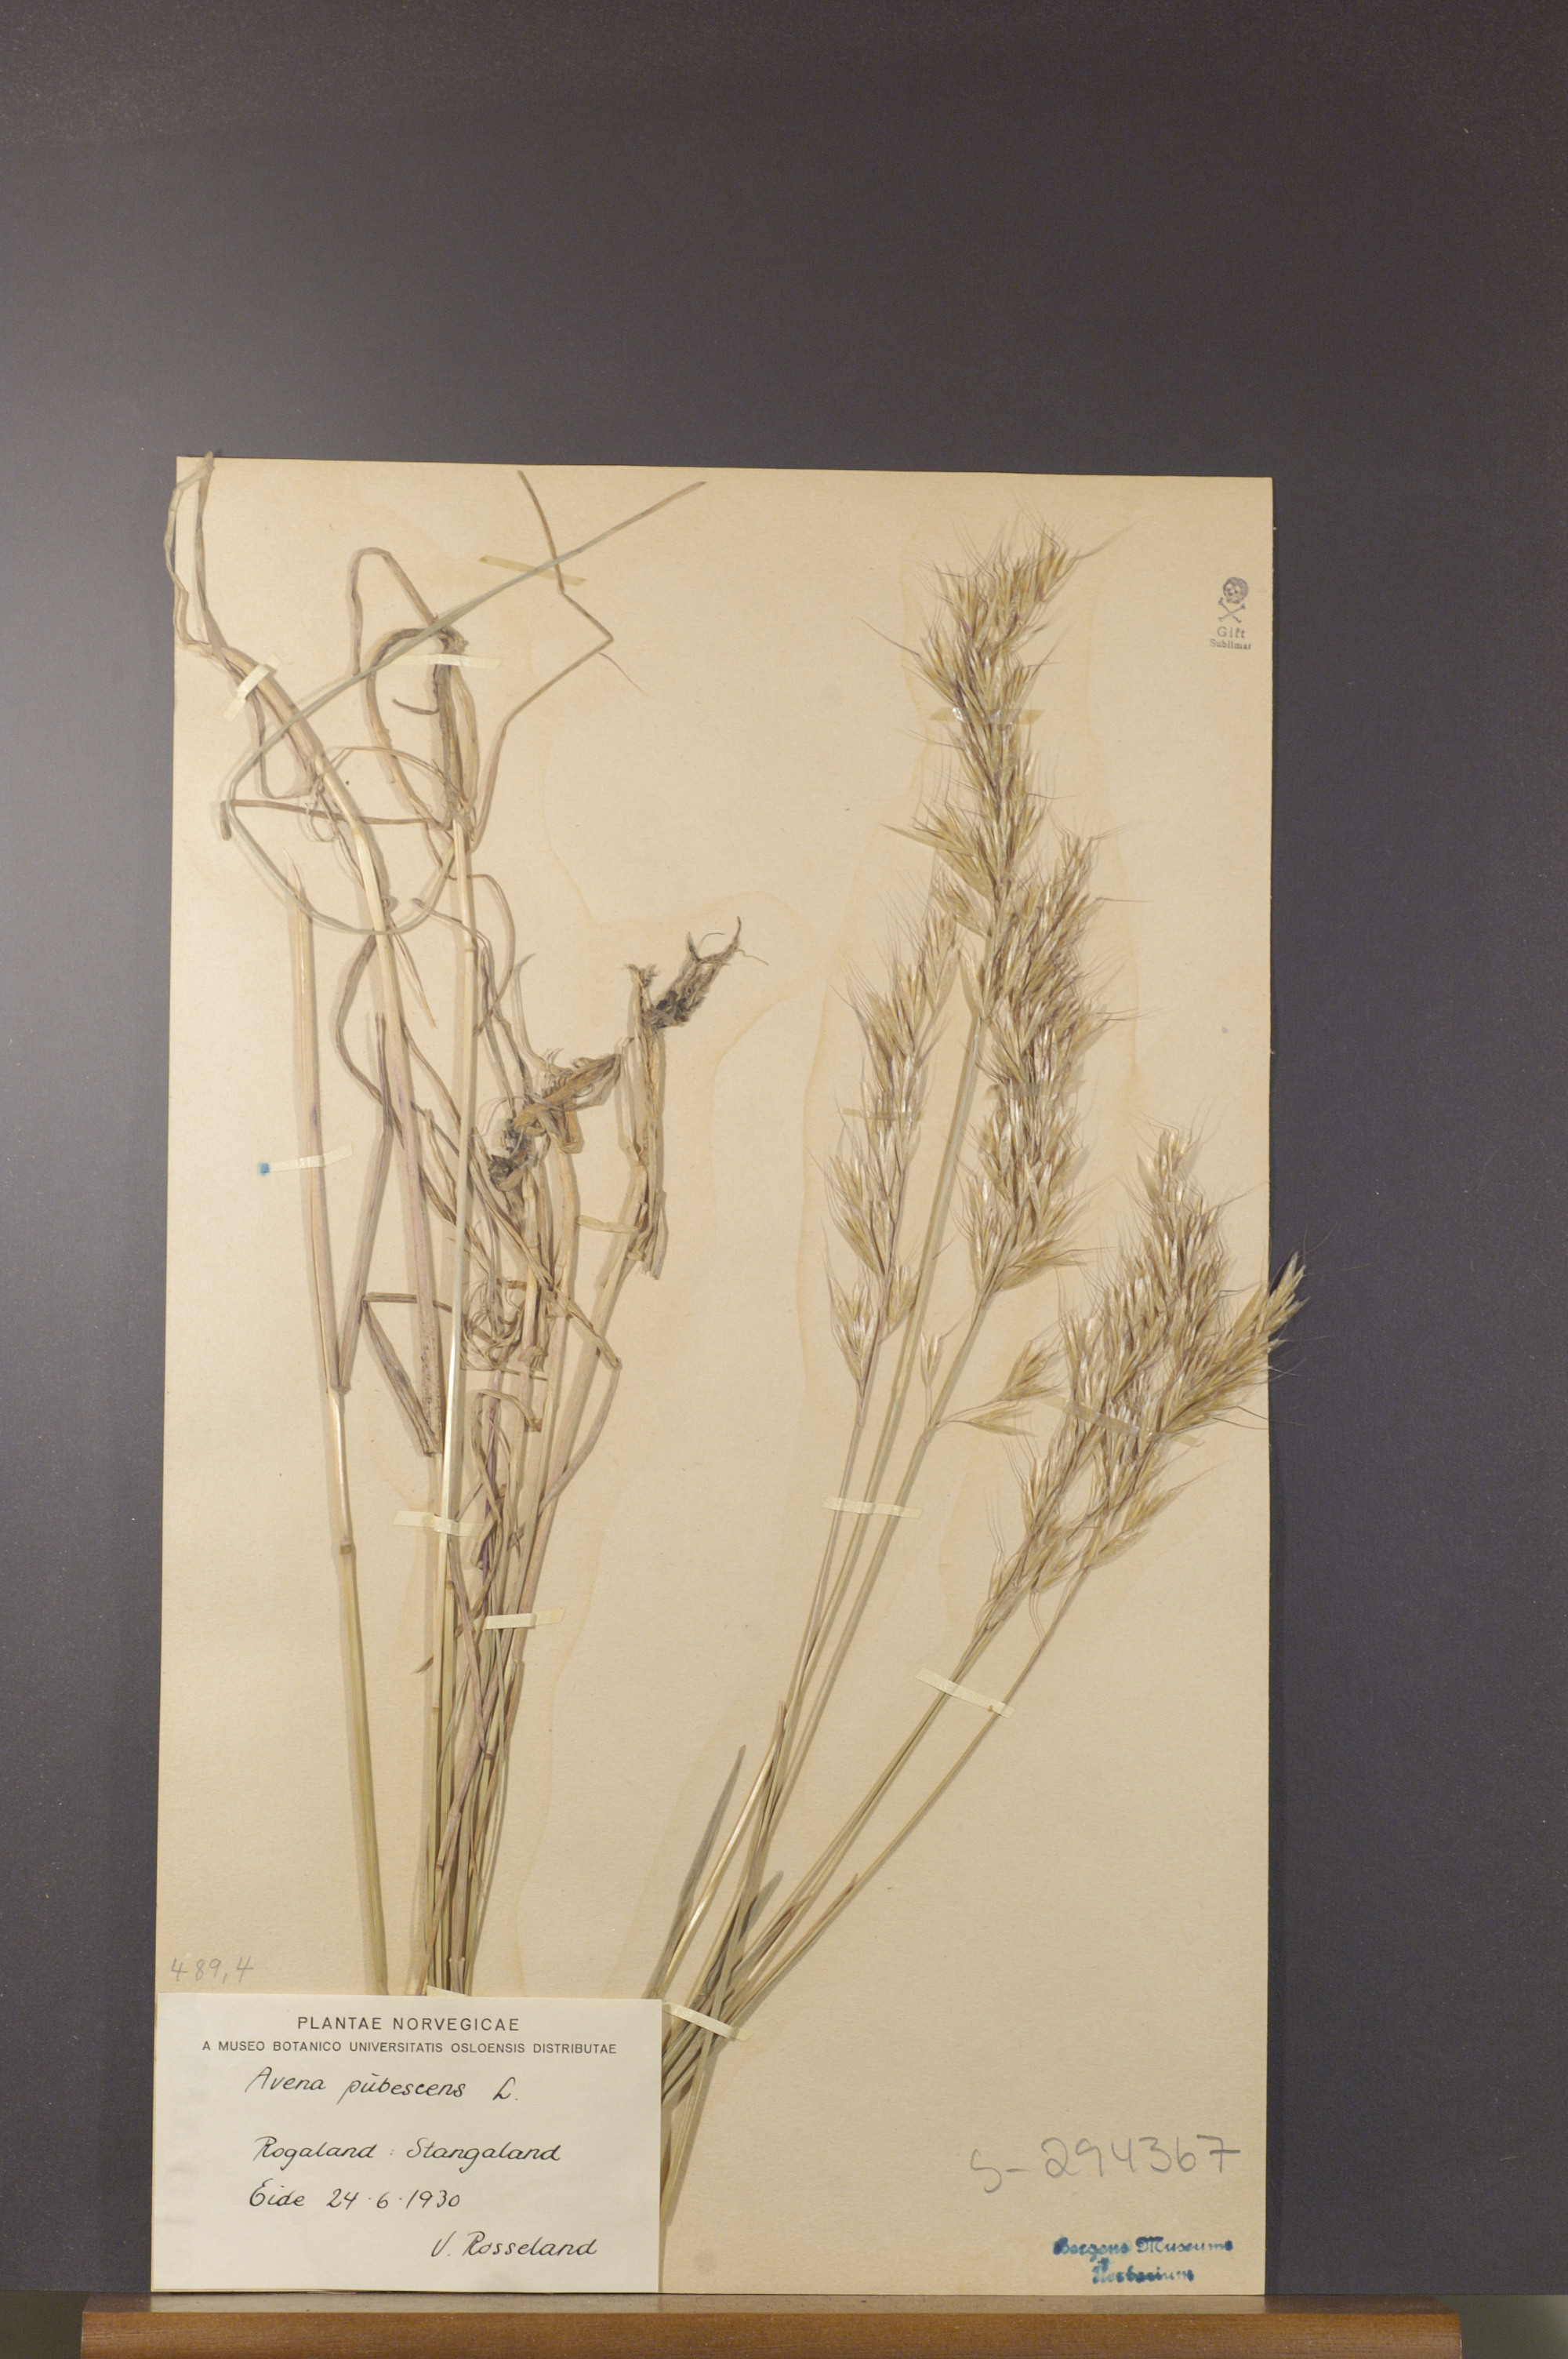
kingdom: Plantae
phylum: Tracheophyta
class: Liliopsida
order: Poales
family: Poaceae
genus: Avenula
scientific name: Avenula pubescens
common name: Downy alpine oatgrass
